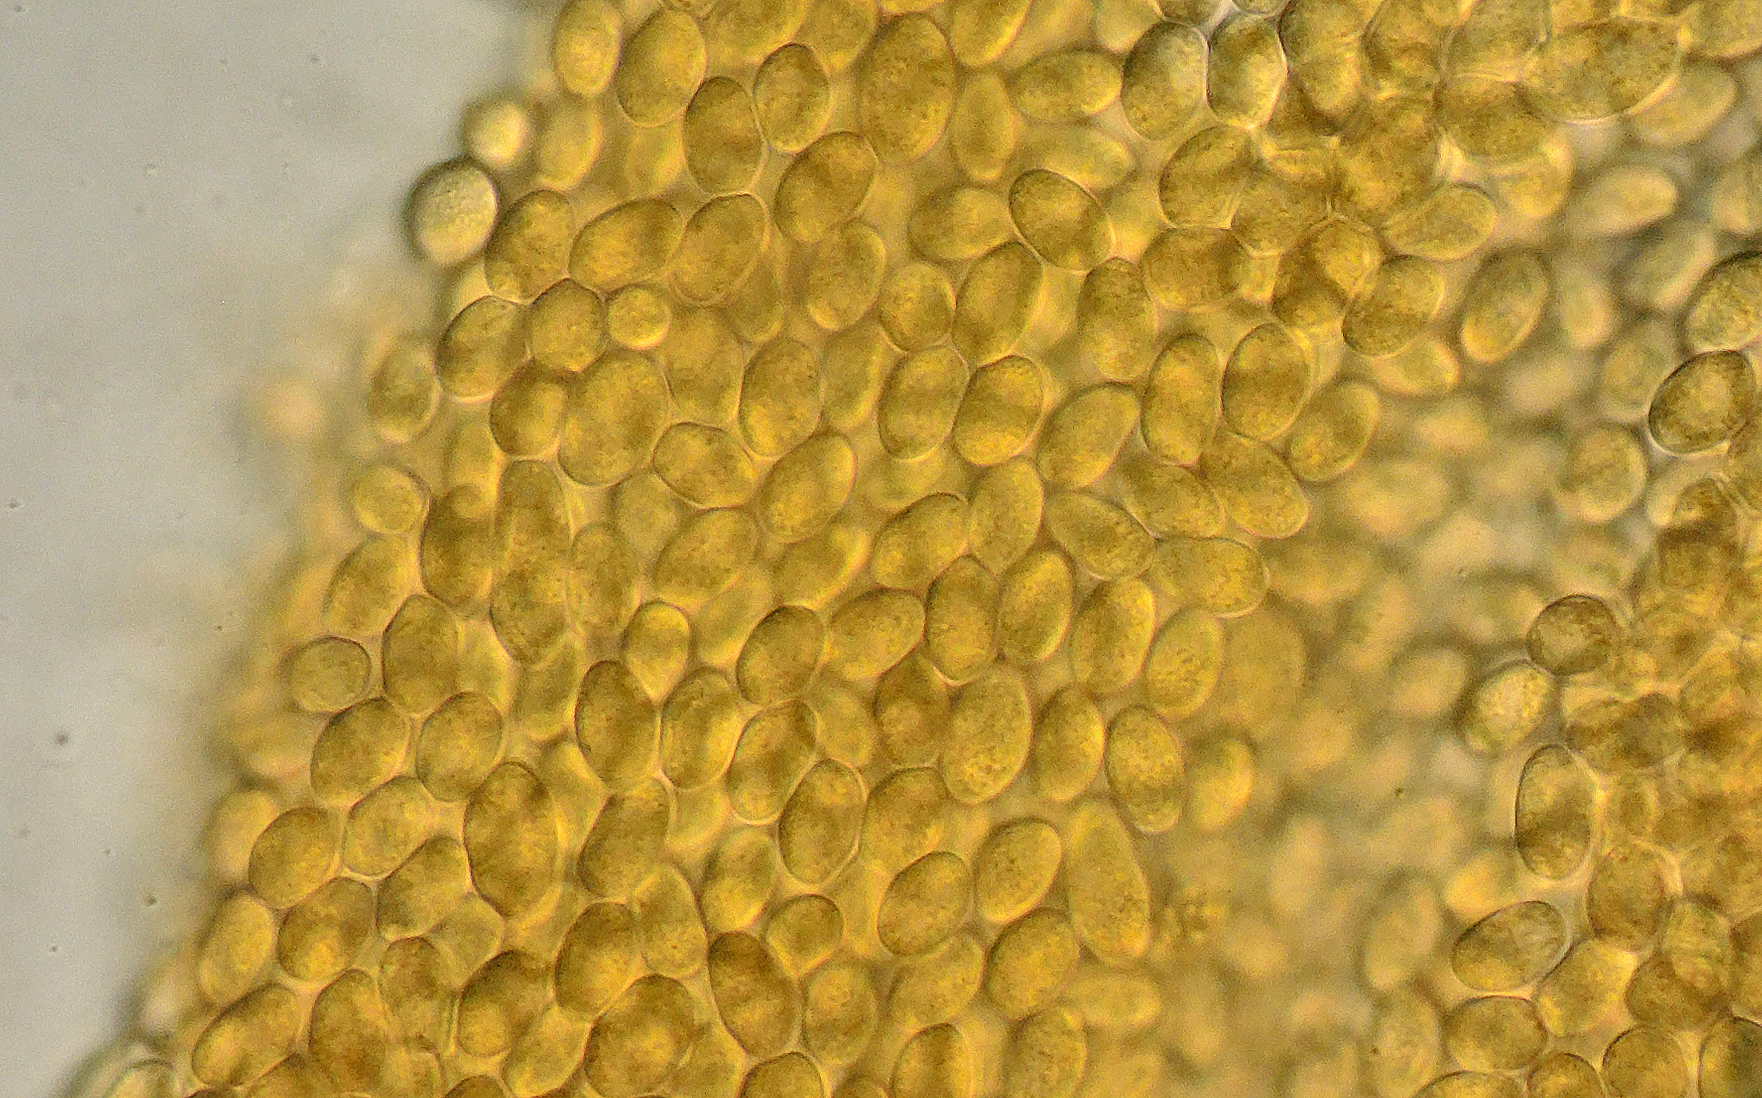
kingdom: Fungi
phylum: Mucoromycota
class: Mucoromycetes
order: Mucorales
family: Pilobolaceae
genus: Pilobolus
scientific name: Pilobolus kleinii
